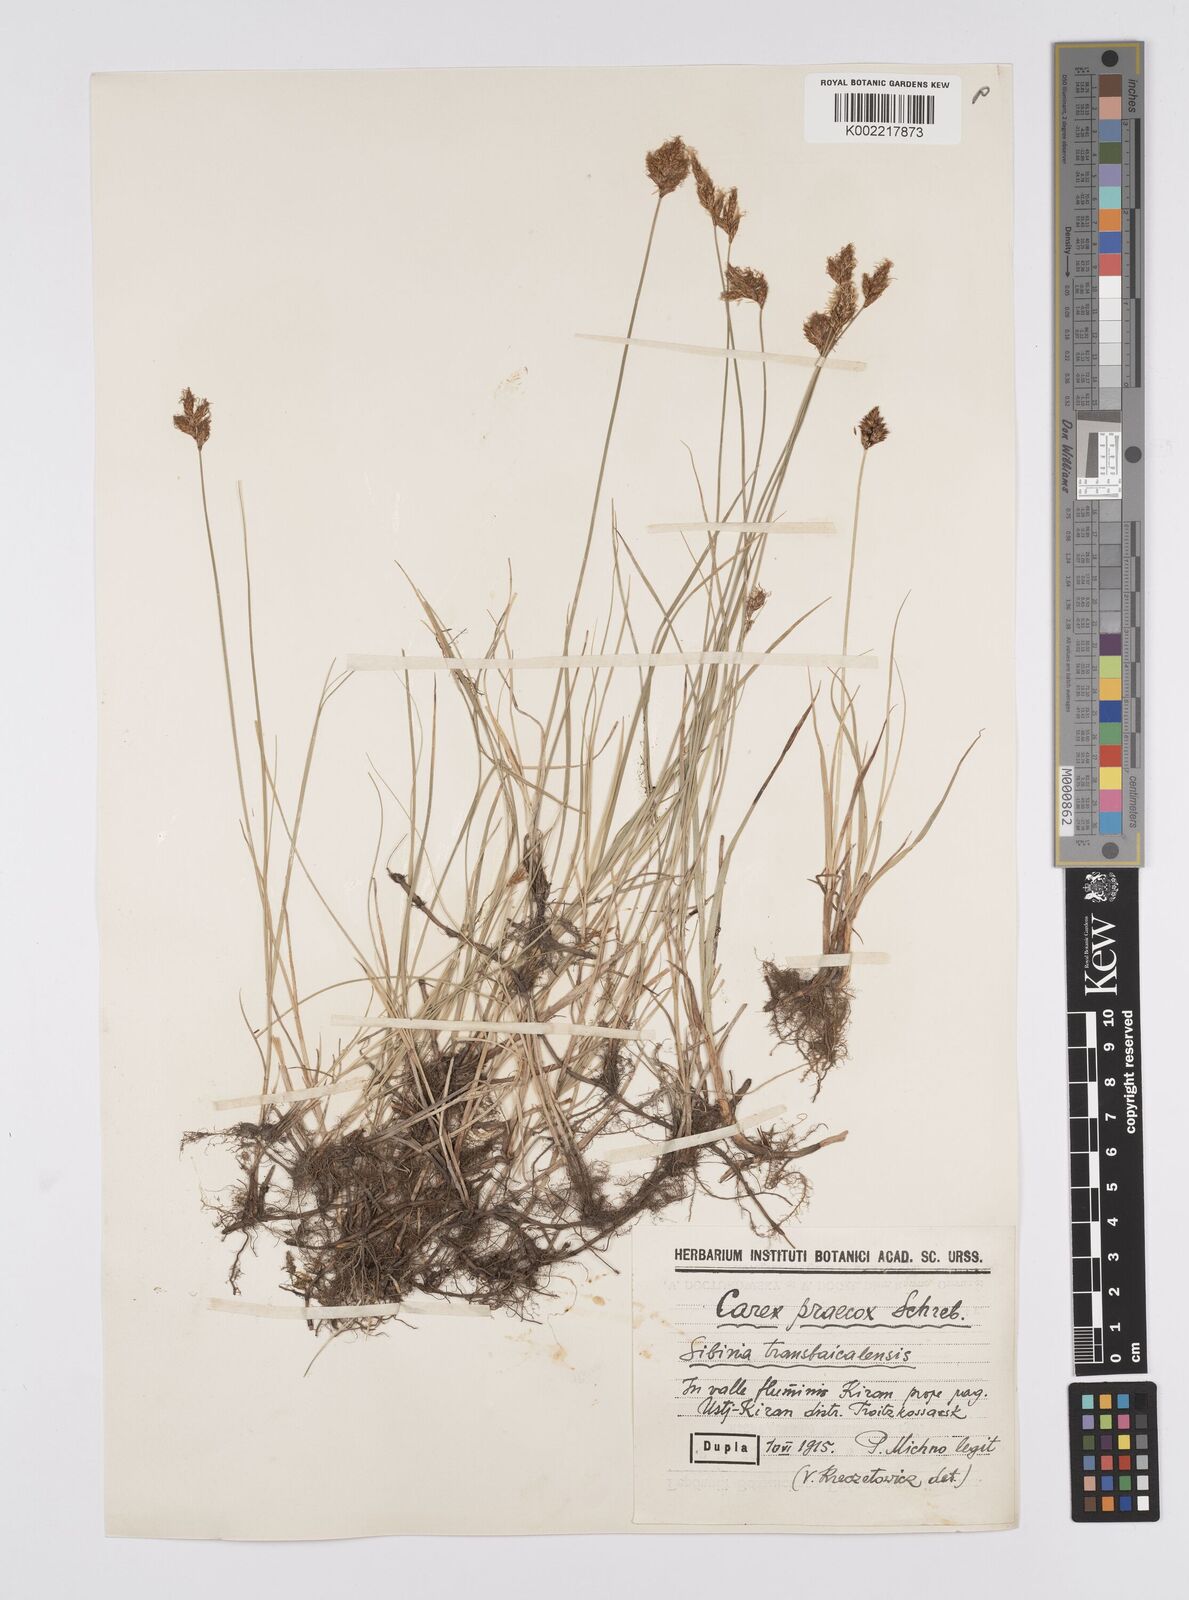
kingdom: Plantae
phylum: Tracheophyta
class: Liliopsida
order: Poales
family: Cyperaceae
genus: Carex
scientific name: Carex praecox
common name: Early sedge
